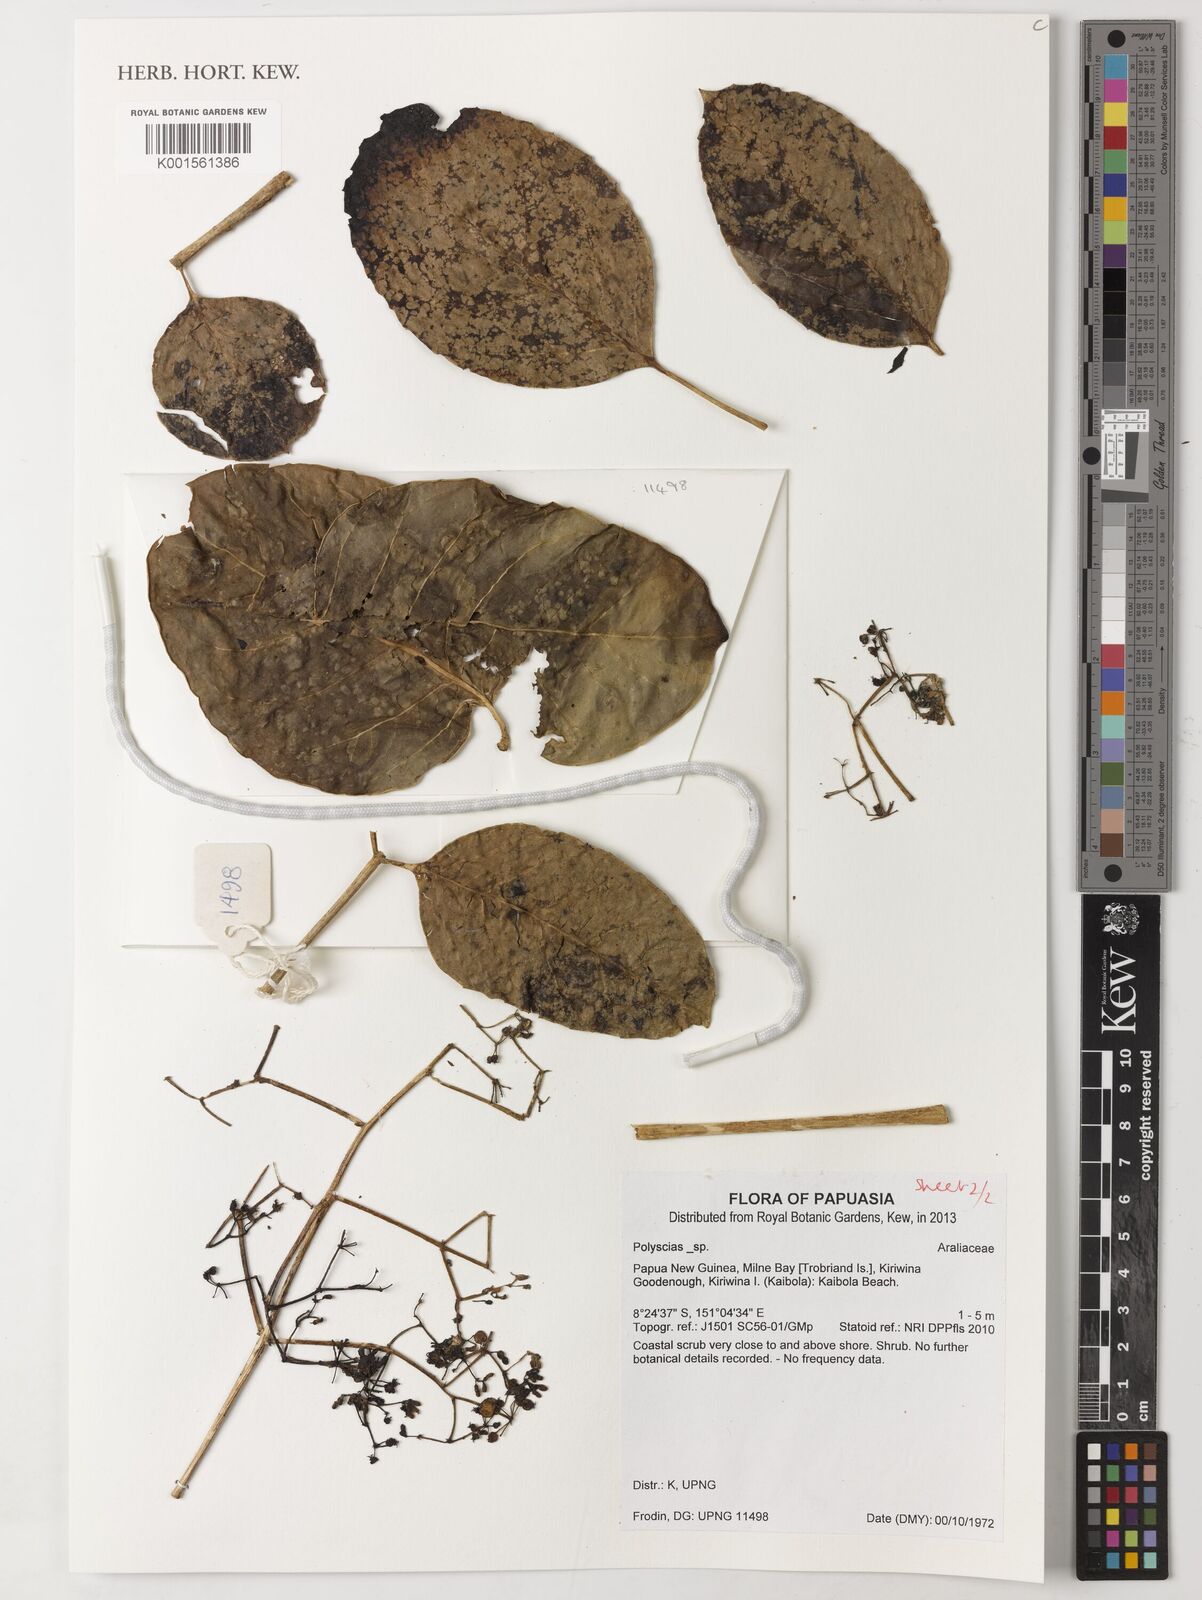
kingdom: Plantae
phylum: Tracheophyta
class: Magnoliopsida
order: Apiales
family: Araliaceae
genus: Polyscias
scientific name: Polyscias
